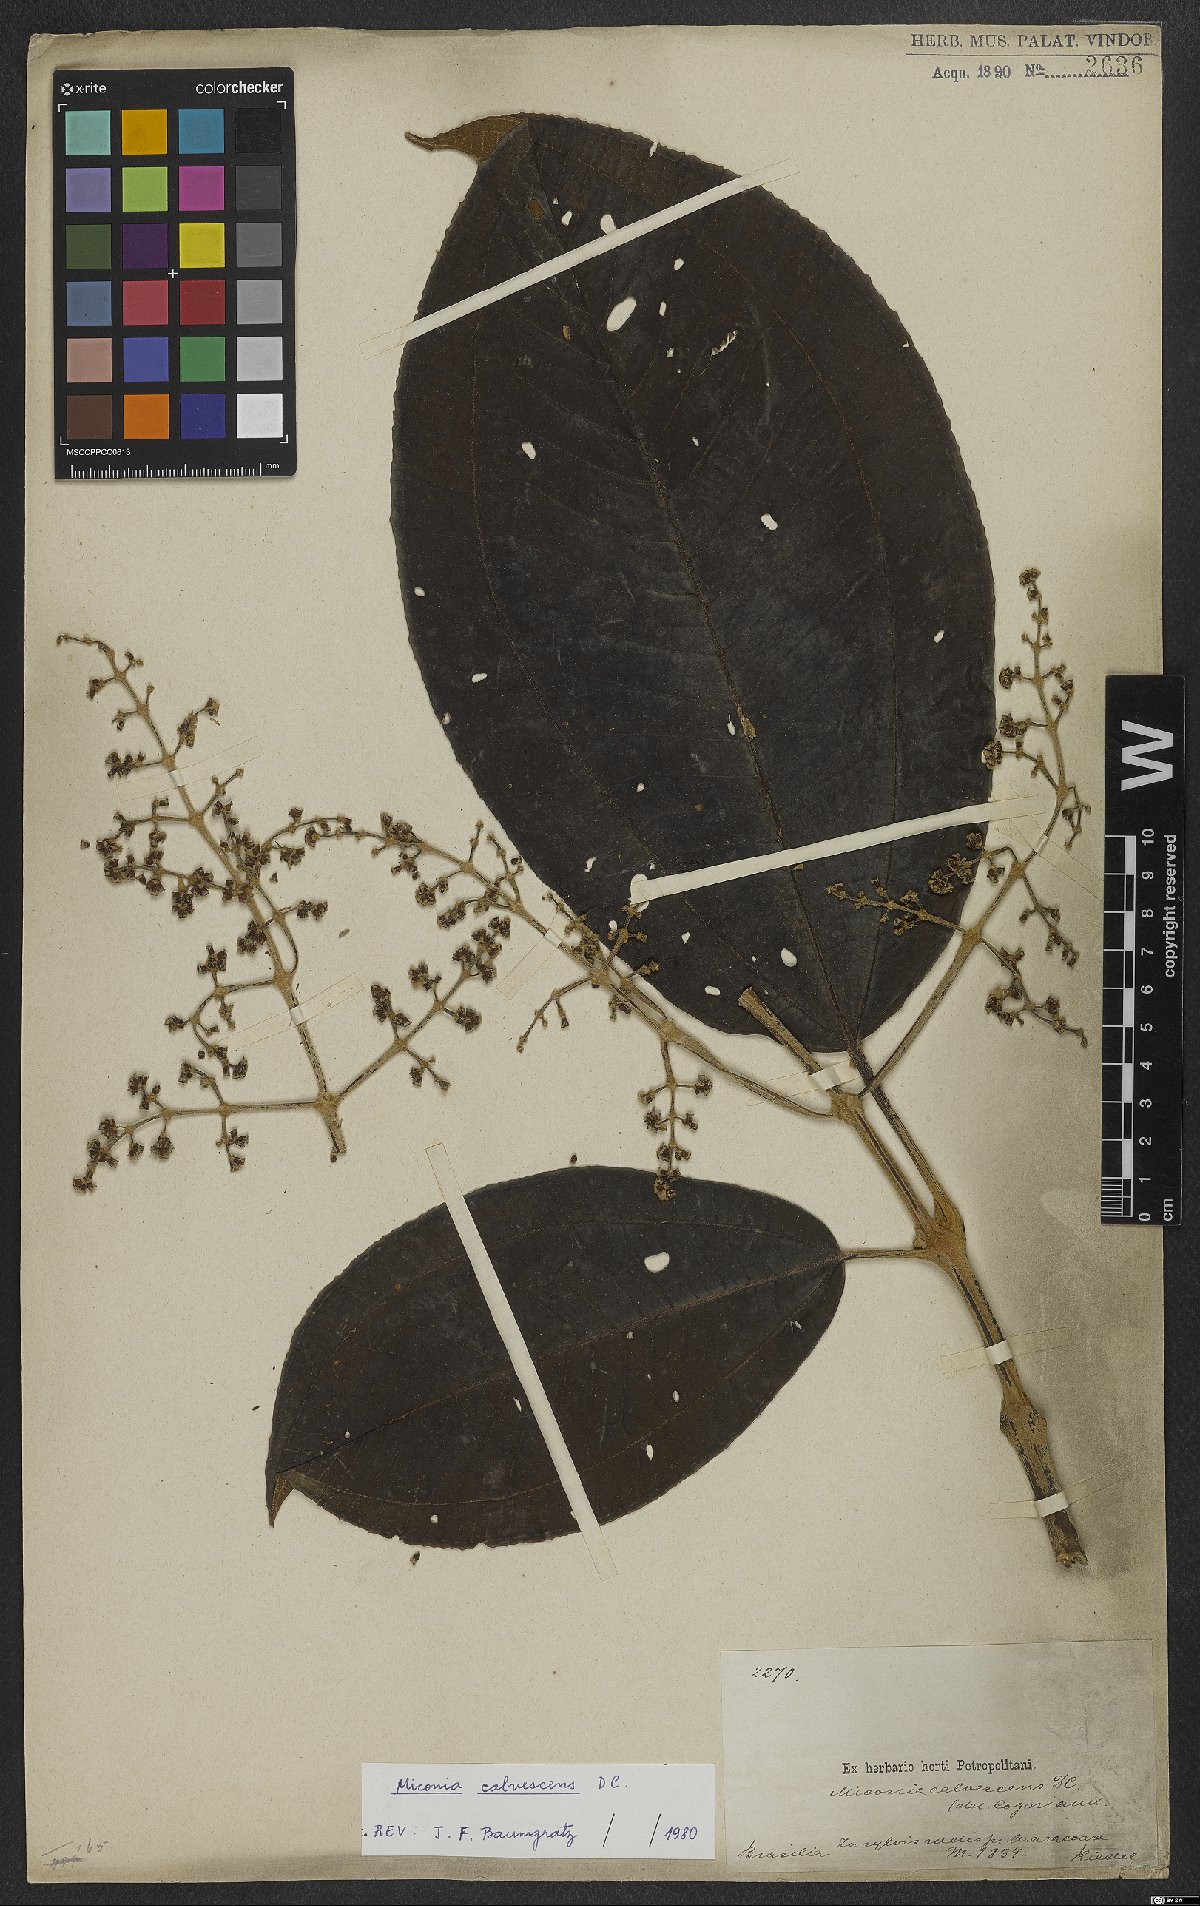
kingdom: Plantae
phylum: Tracheophyta
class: Magnoliopsida
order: Myrtales
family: Melastomataceae
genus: Miconia
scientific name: Miconia calvescens
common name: Purple plague
